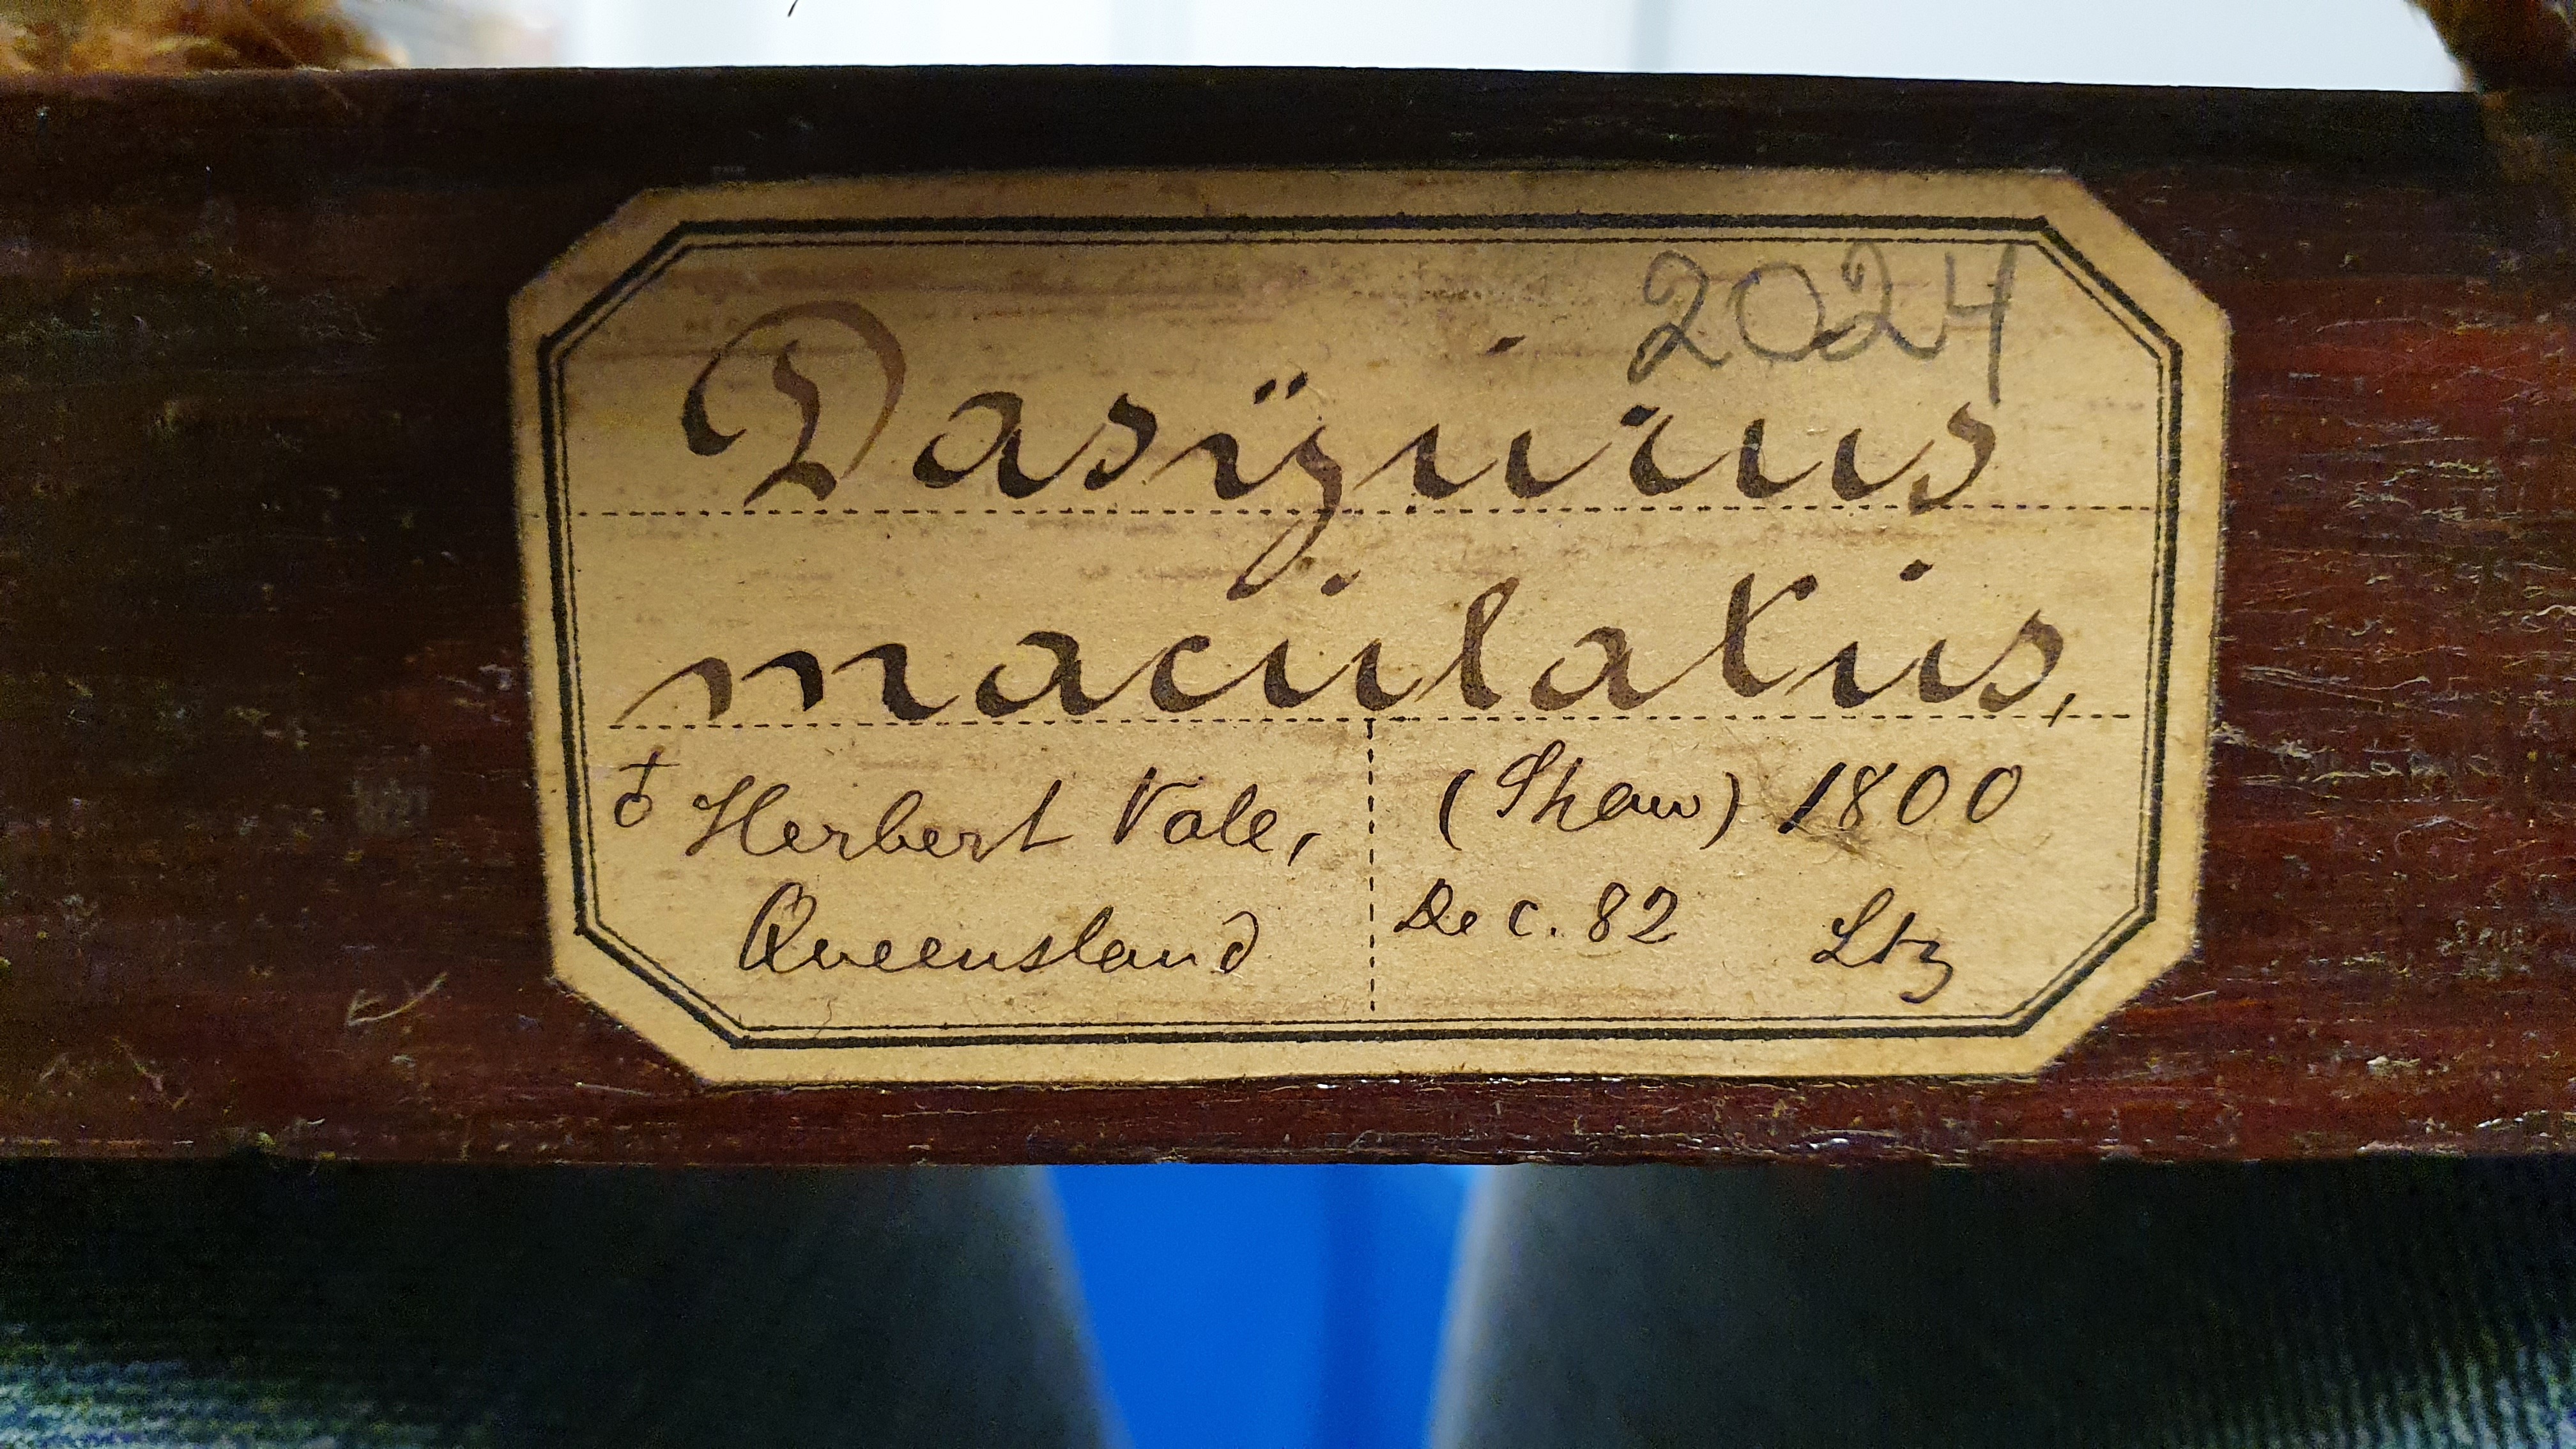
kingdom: Animalia
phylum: Chordata
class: Mammalia
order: Dasyuromorphia
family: Dasyuridae
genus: Dasyurus
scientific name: Dasyurus maculatus
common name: Tiger quoll
